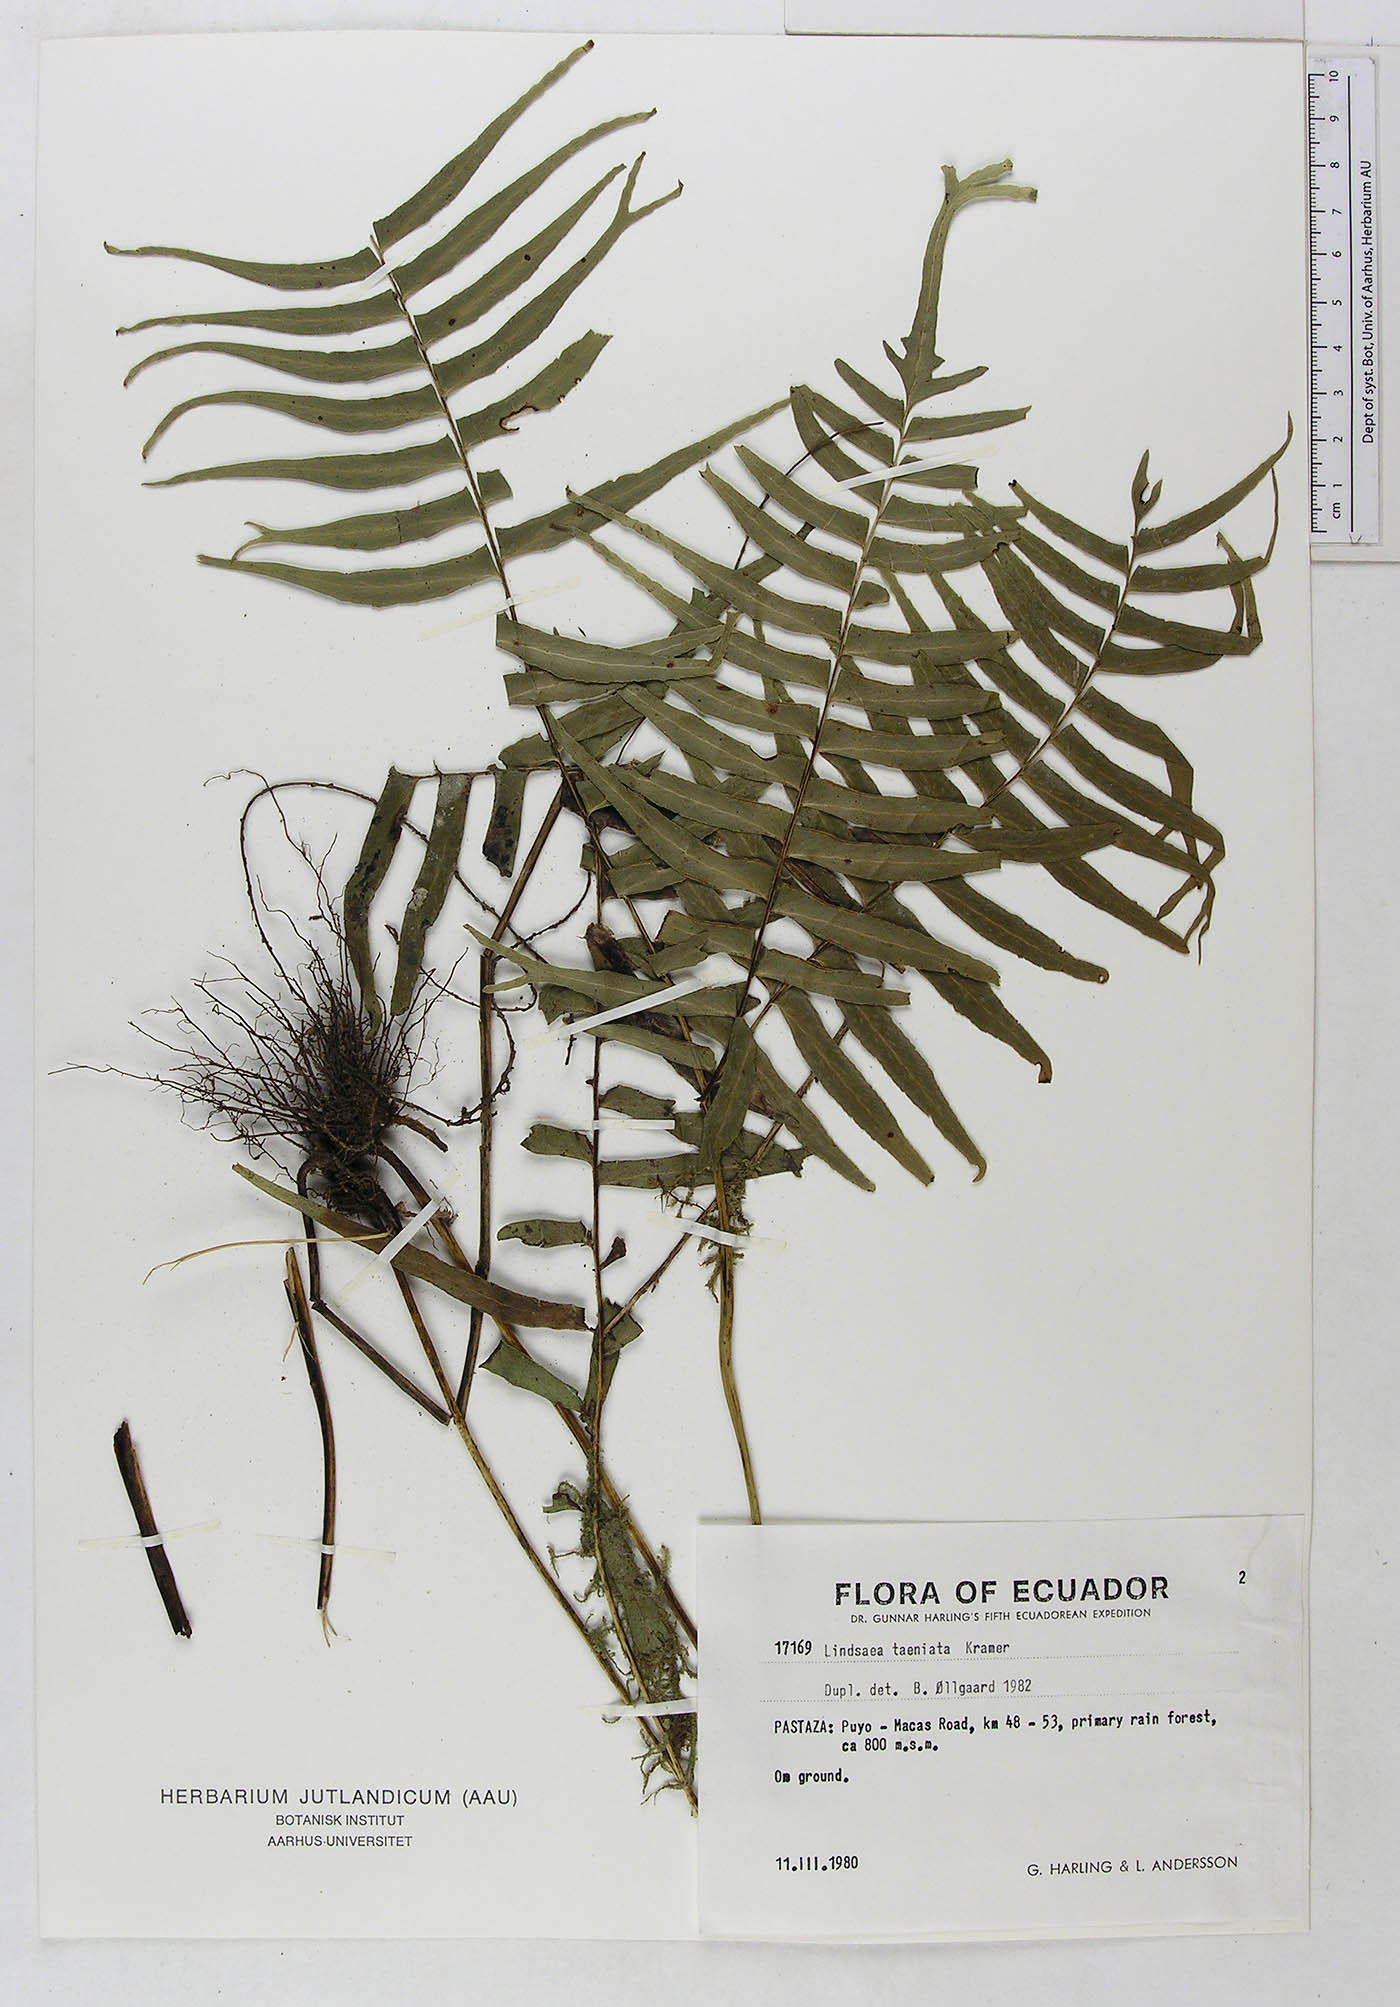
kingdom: Plantae
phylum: Tracheophyta
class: Polypodiopsida
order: Polypodiales
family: Lindsaeaceae
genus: Lindsaea
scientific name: Lindsaea taeniata
